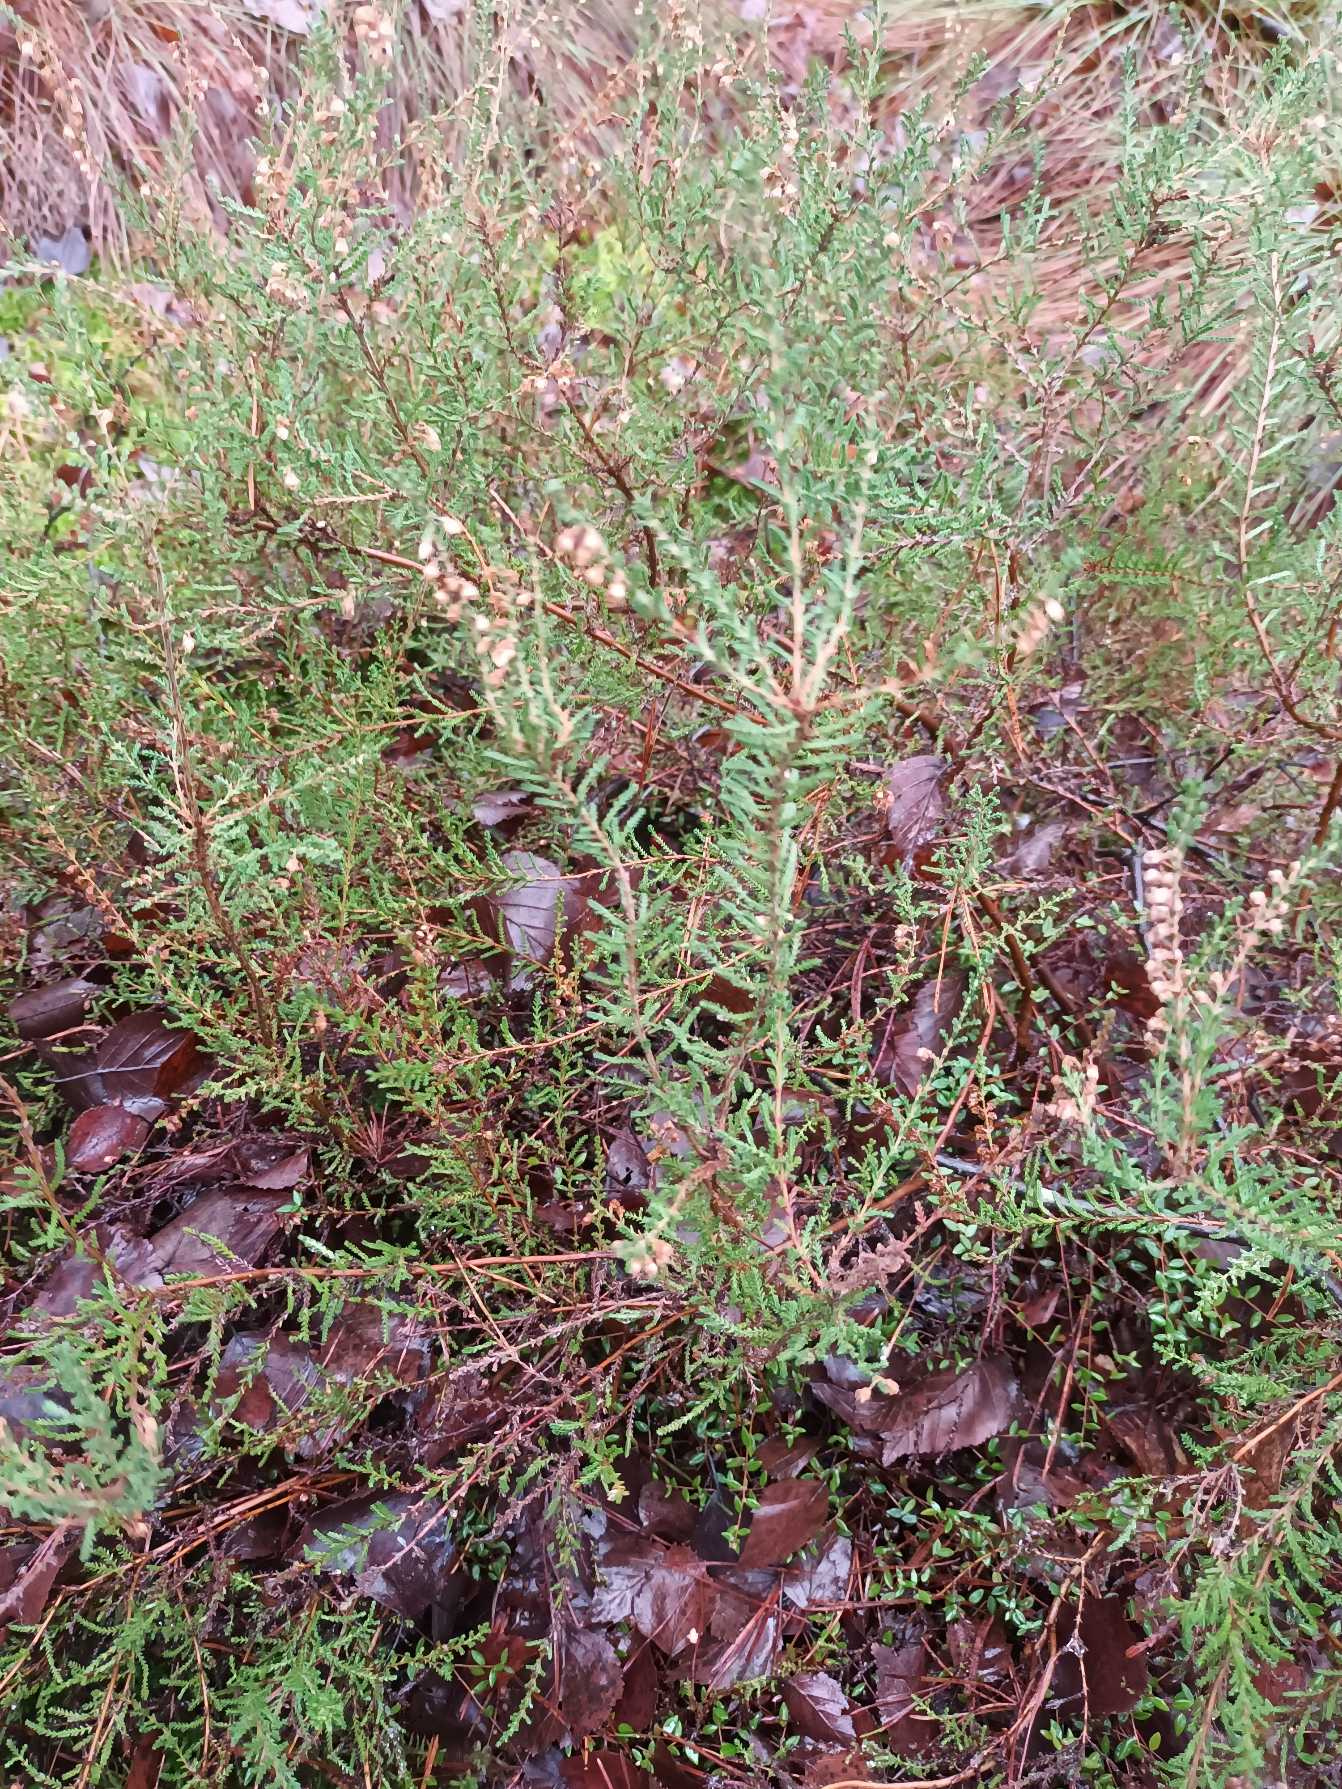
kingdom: Plantae
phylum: Tracheophyta
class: Magnoliopsida
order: Ericales
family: Ericaceae
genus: Calluna
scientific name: Calluna vulgaris
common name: Hedelyng
